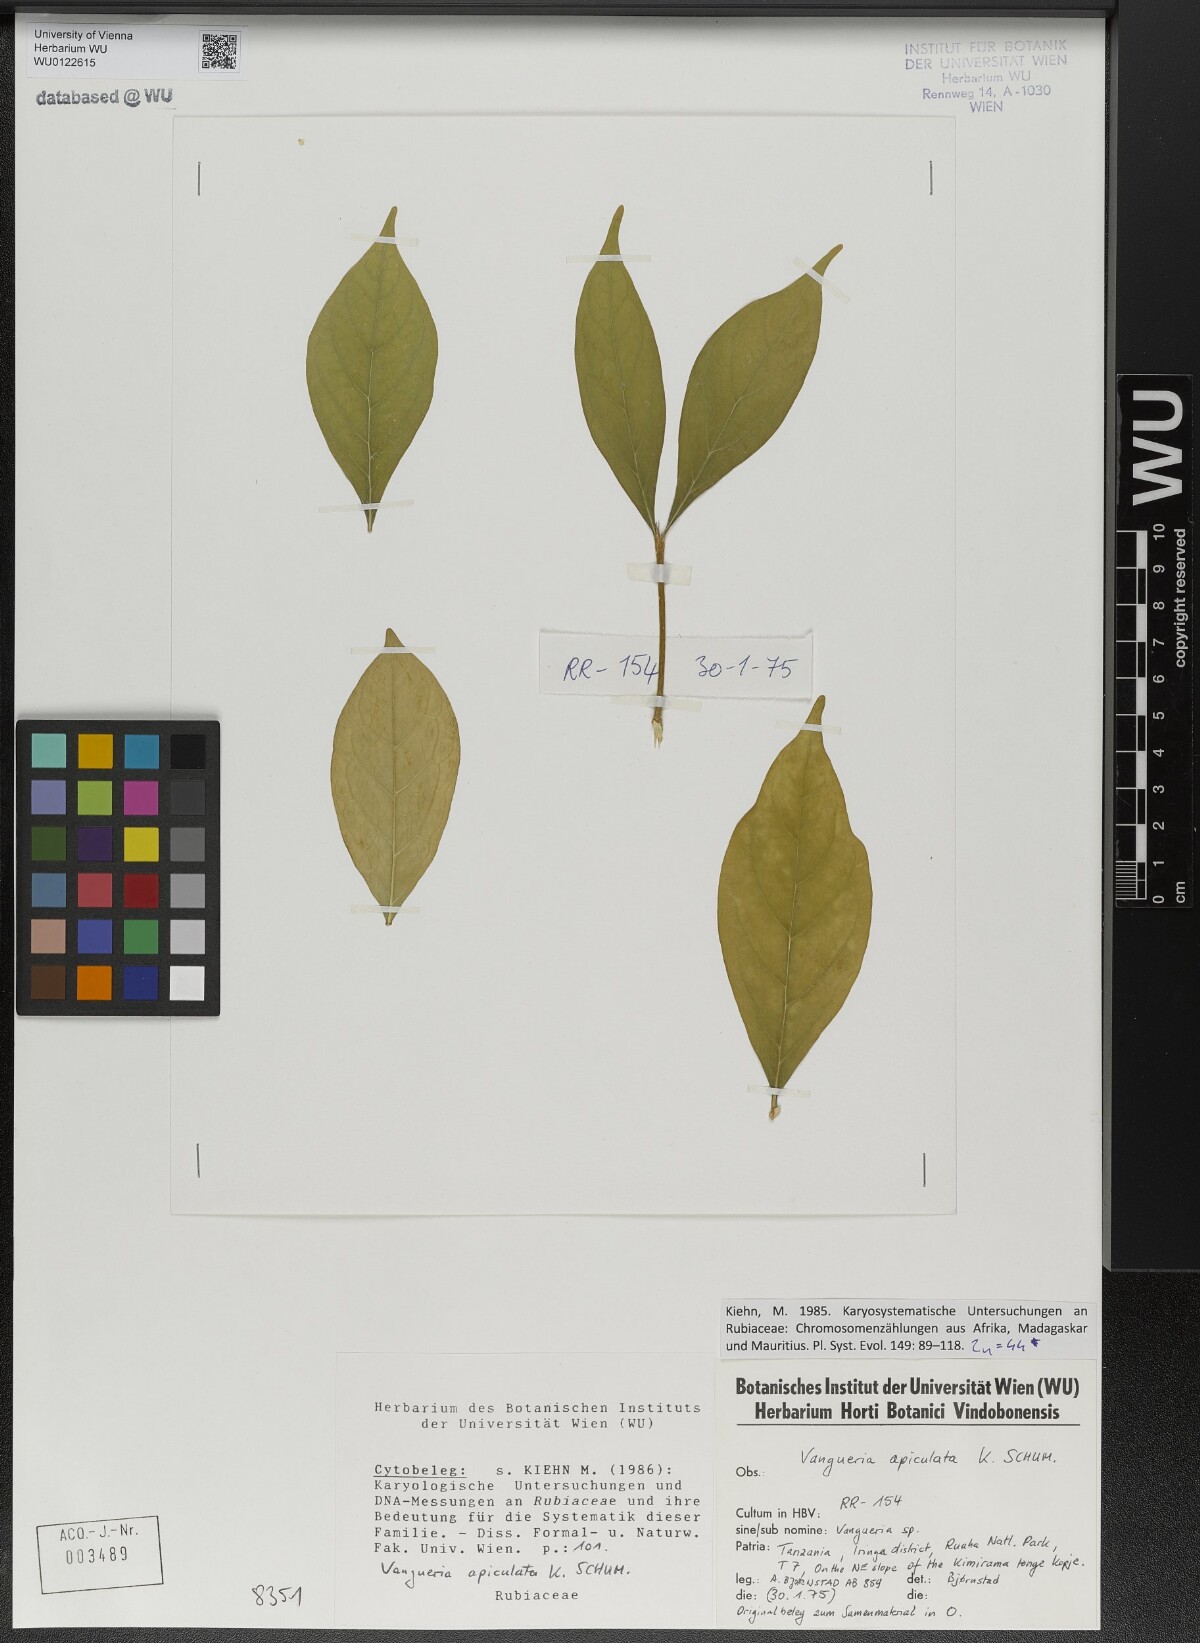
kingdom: Plantae
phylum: Tracheophyta
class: Magnoliopsida
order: Gentianales
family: Rubiaceae
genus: Vangueria
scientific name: Vangueria apiculata
